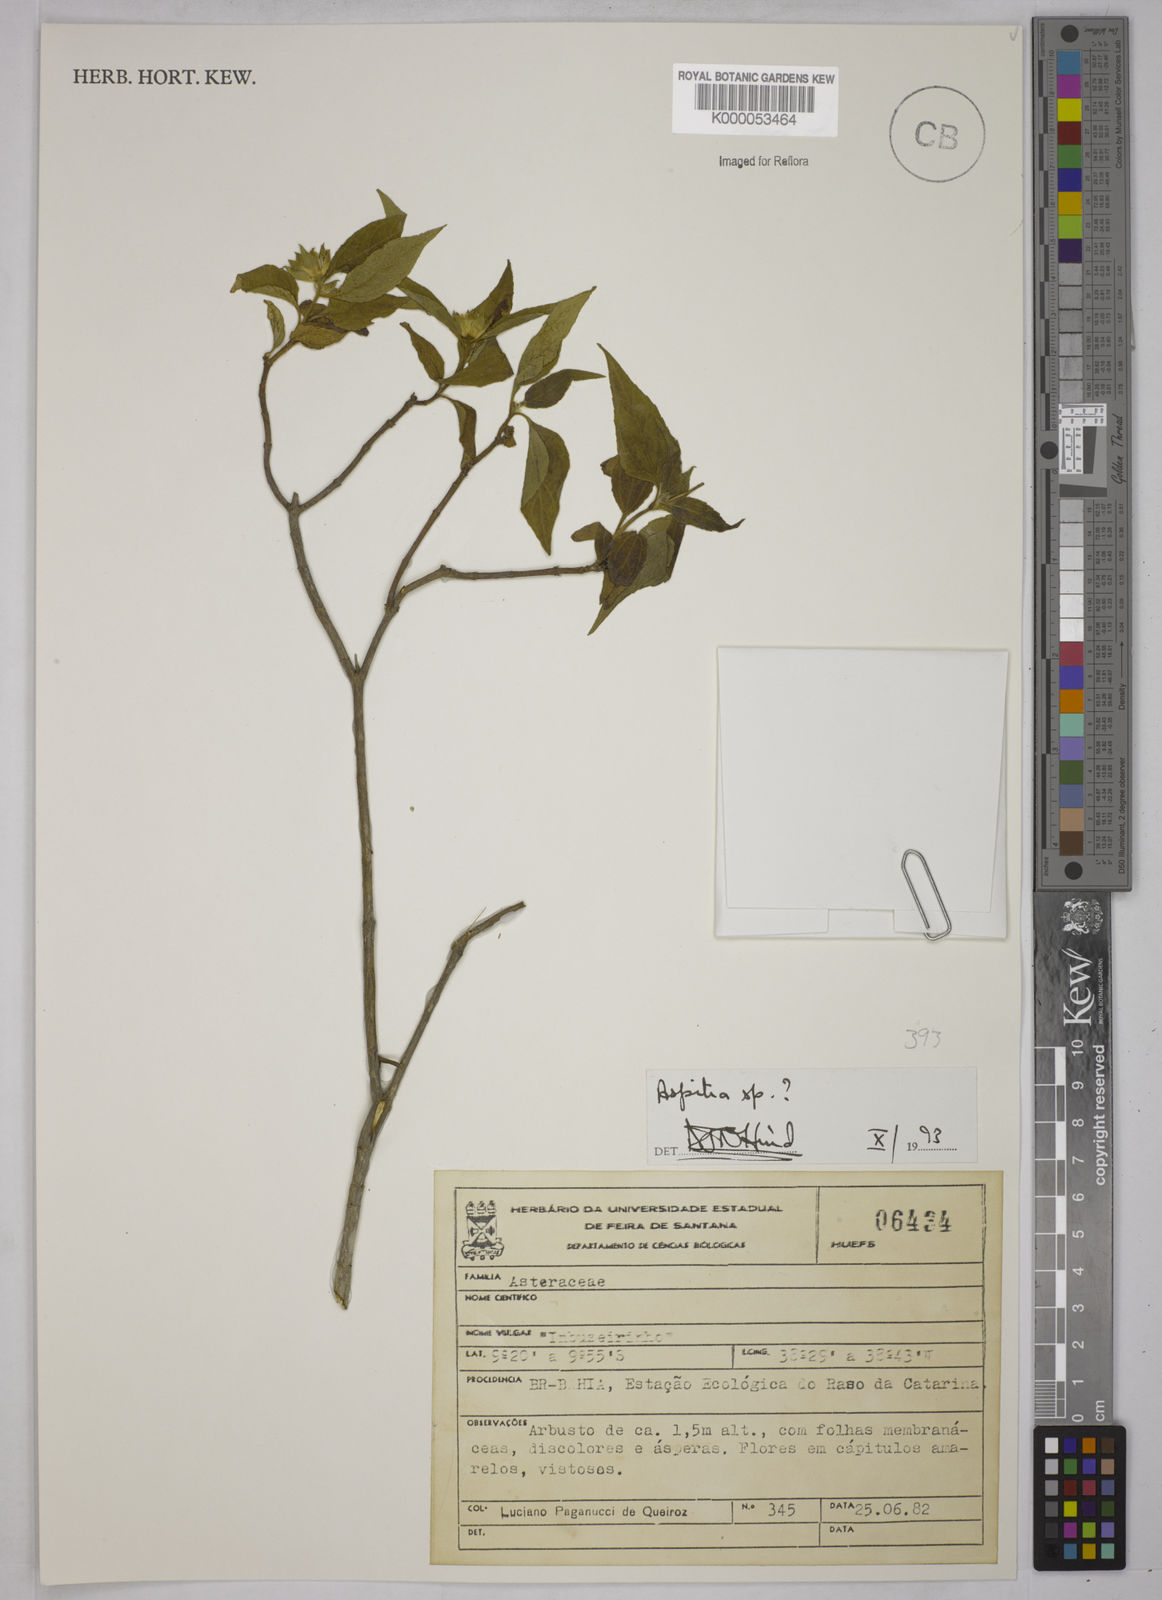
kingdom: Plantae
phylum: Tracheophyta
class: Magnoliopsida
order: Asterales
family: Asteraceae
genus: Aspilia
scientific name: Aspilia
